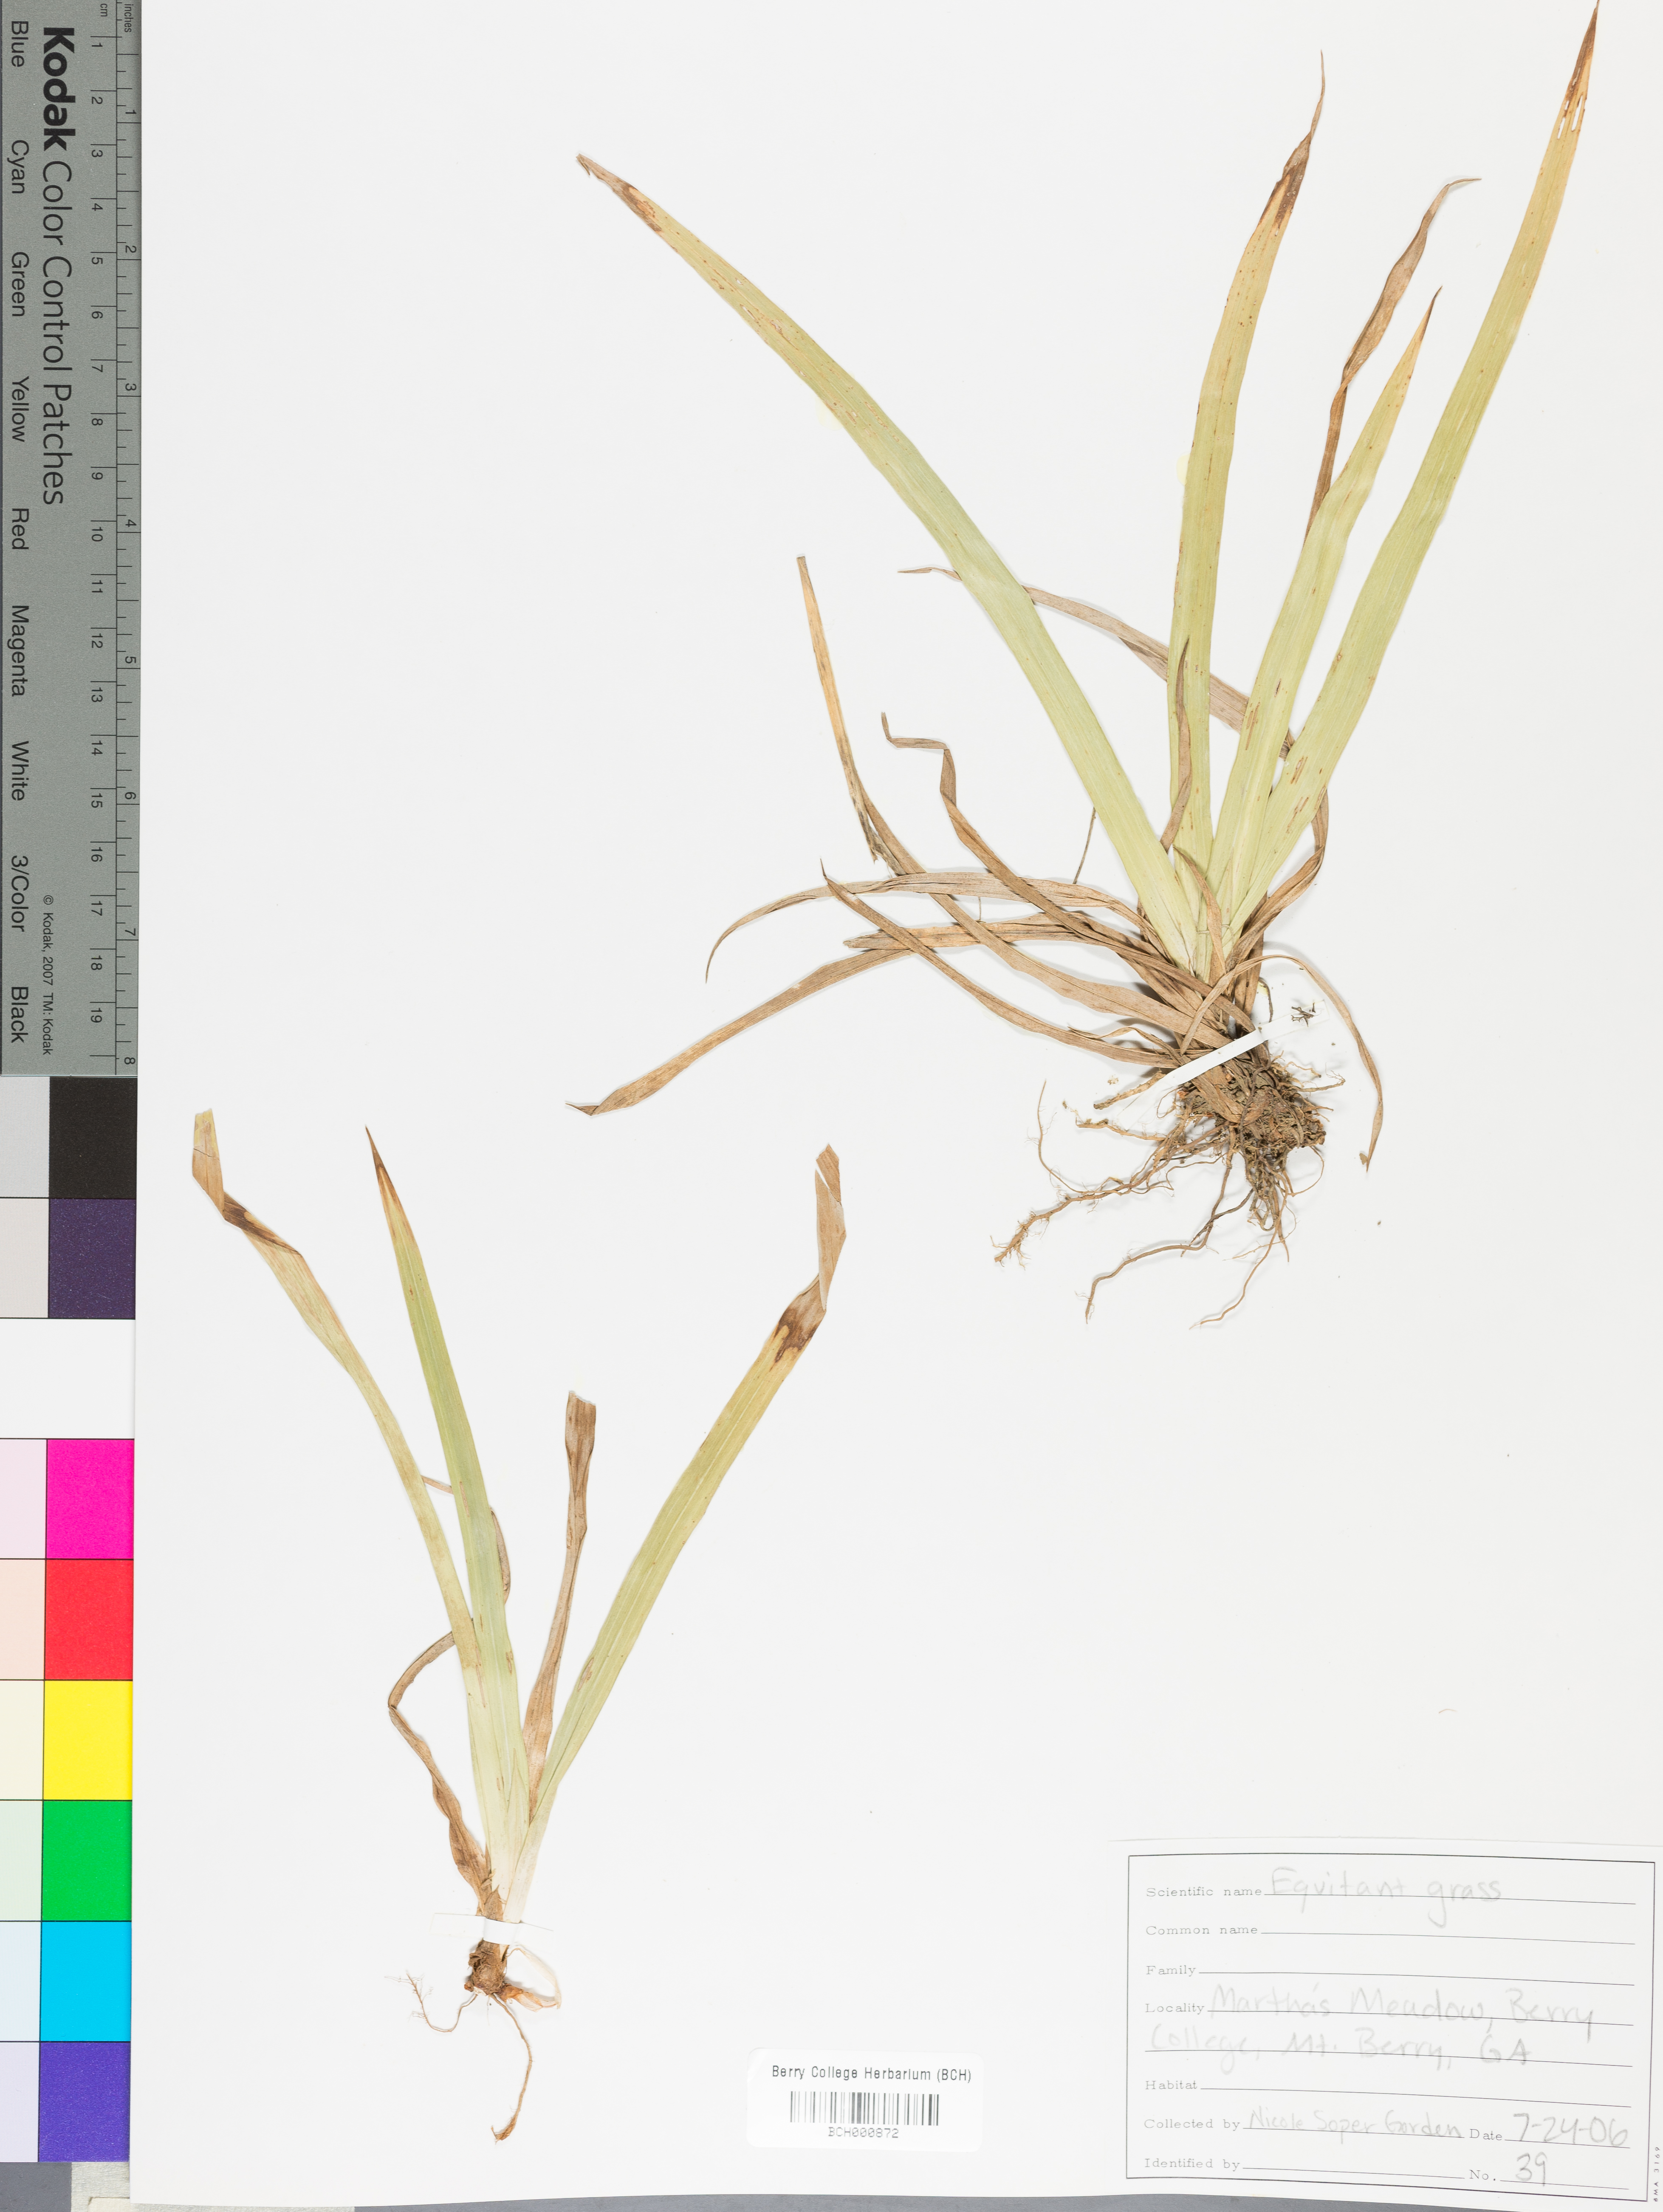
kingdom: Plantae
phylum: Tracheophyta
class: Magnoliopsida
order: Lamiales
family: Acanthaceae
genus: Adhatoda
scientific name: Adhatoda
